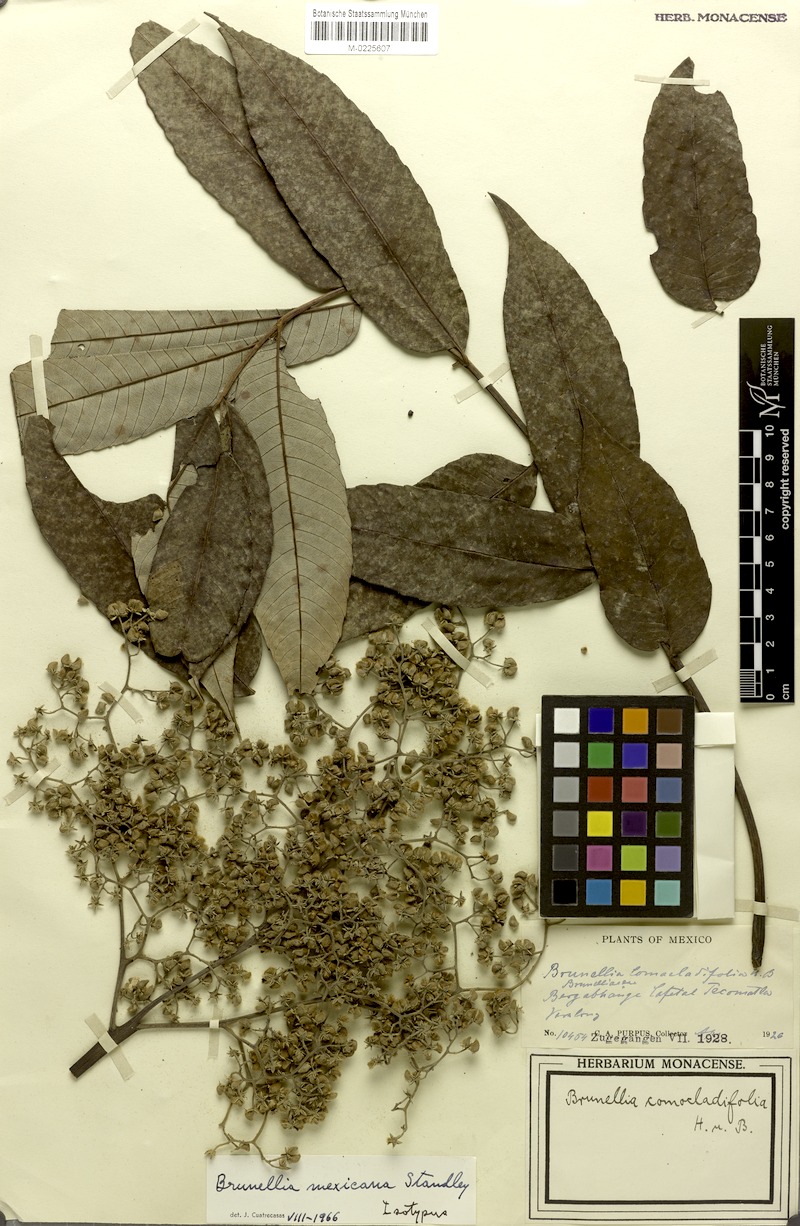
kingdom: Plantae
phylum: Tracheophyta
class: Magnoliopsida
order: Oxalidales
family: Brunelliaceae
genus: Brunellia
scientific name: Brunellia mexicana
